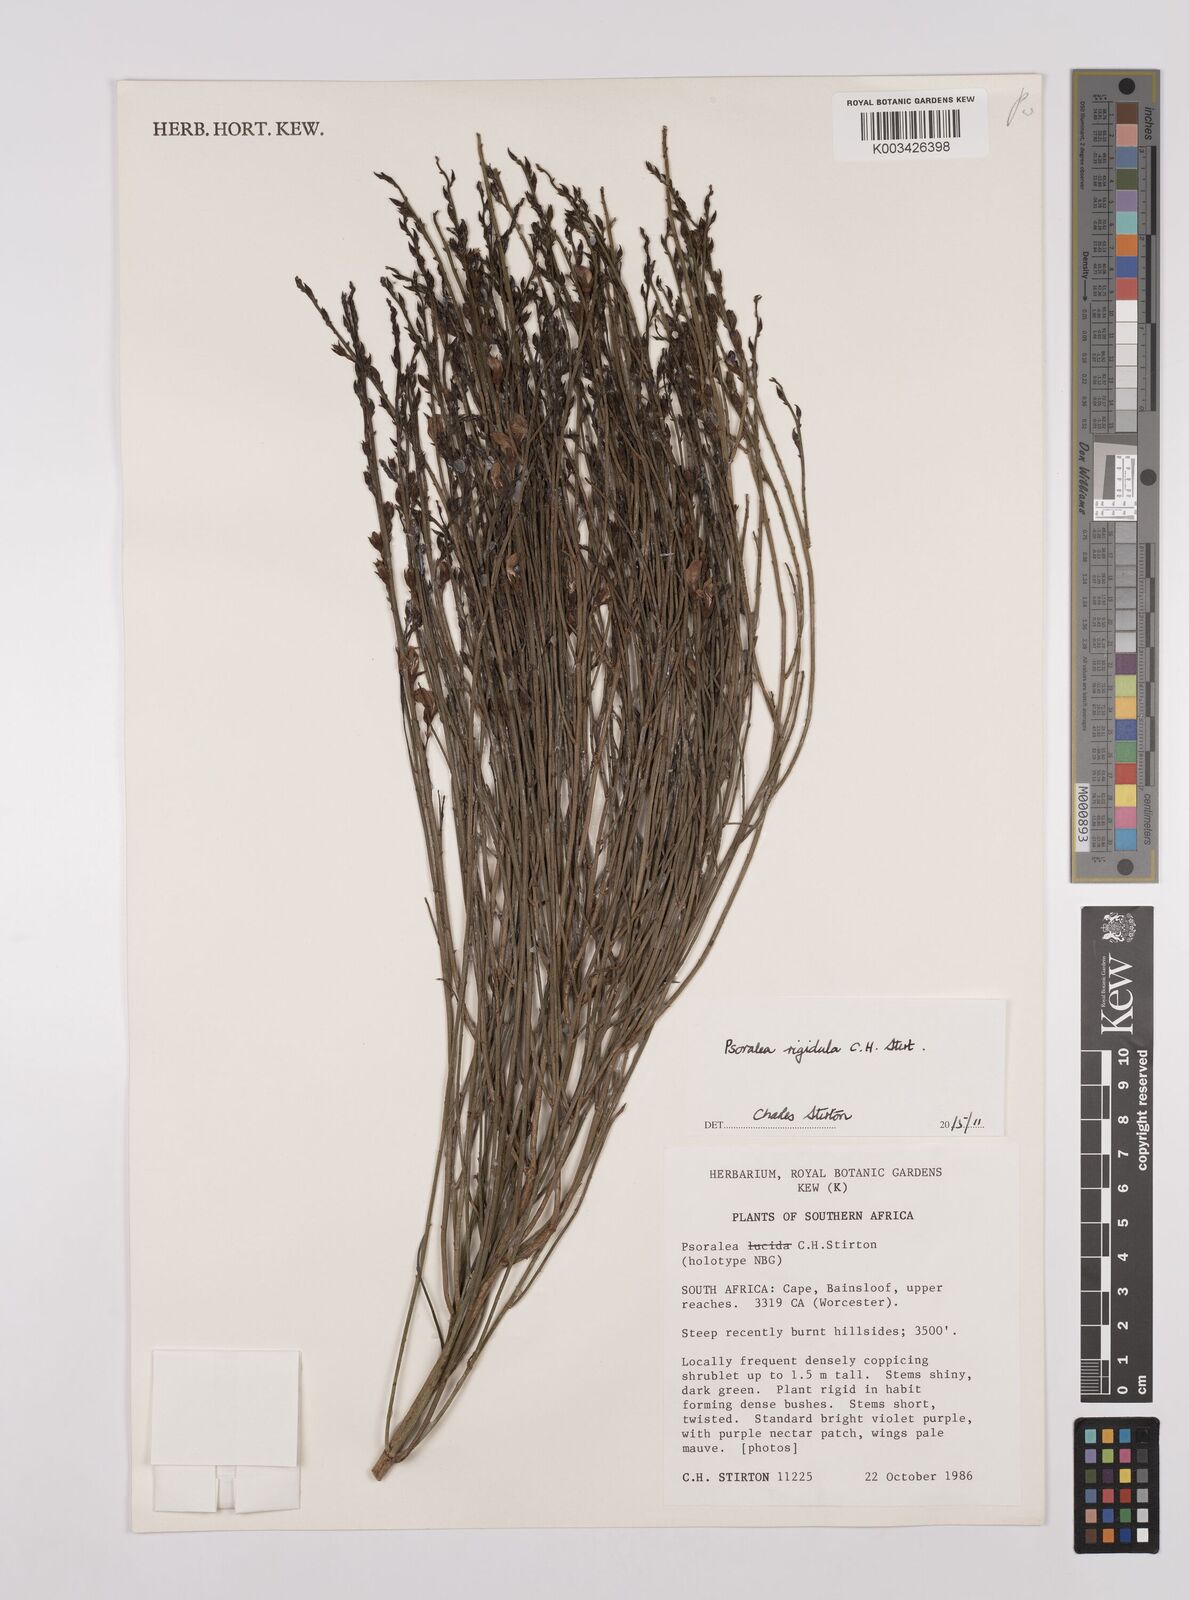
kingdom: Plantae
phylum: Tracheophyta
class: Magnoliopsida
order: Fabales
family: Fabaceae
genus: Psoralea
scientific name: Psoralea rigidula
